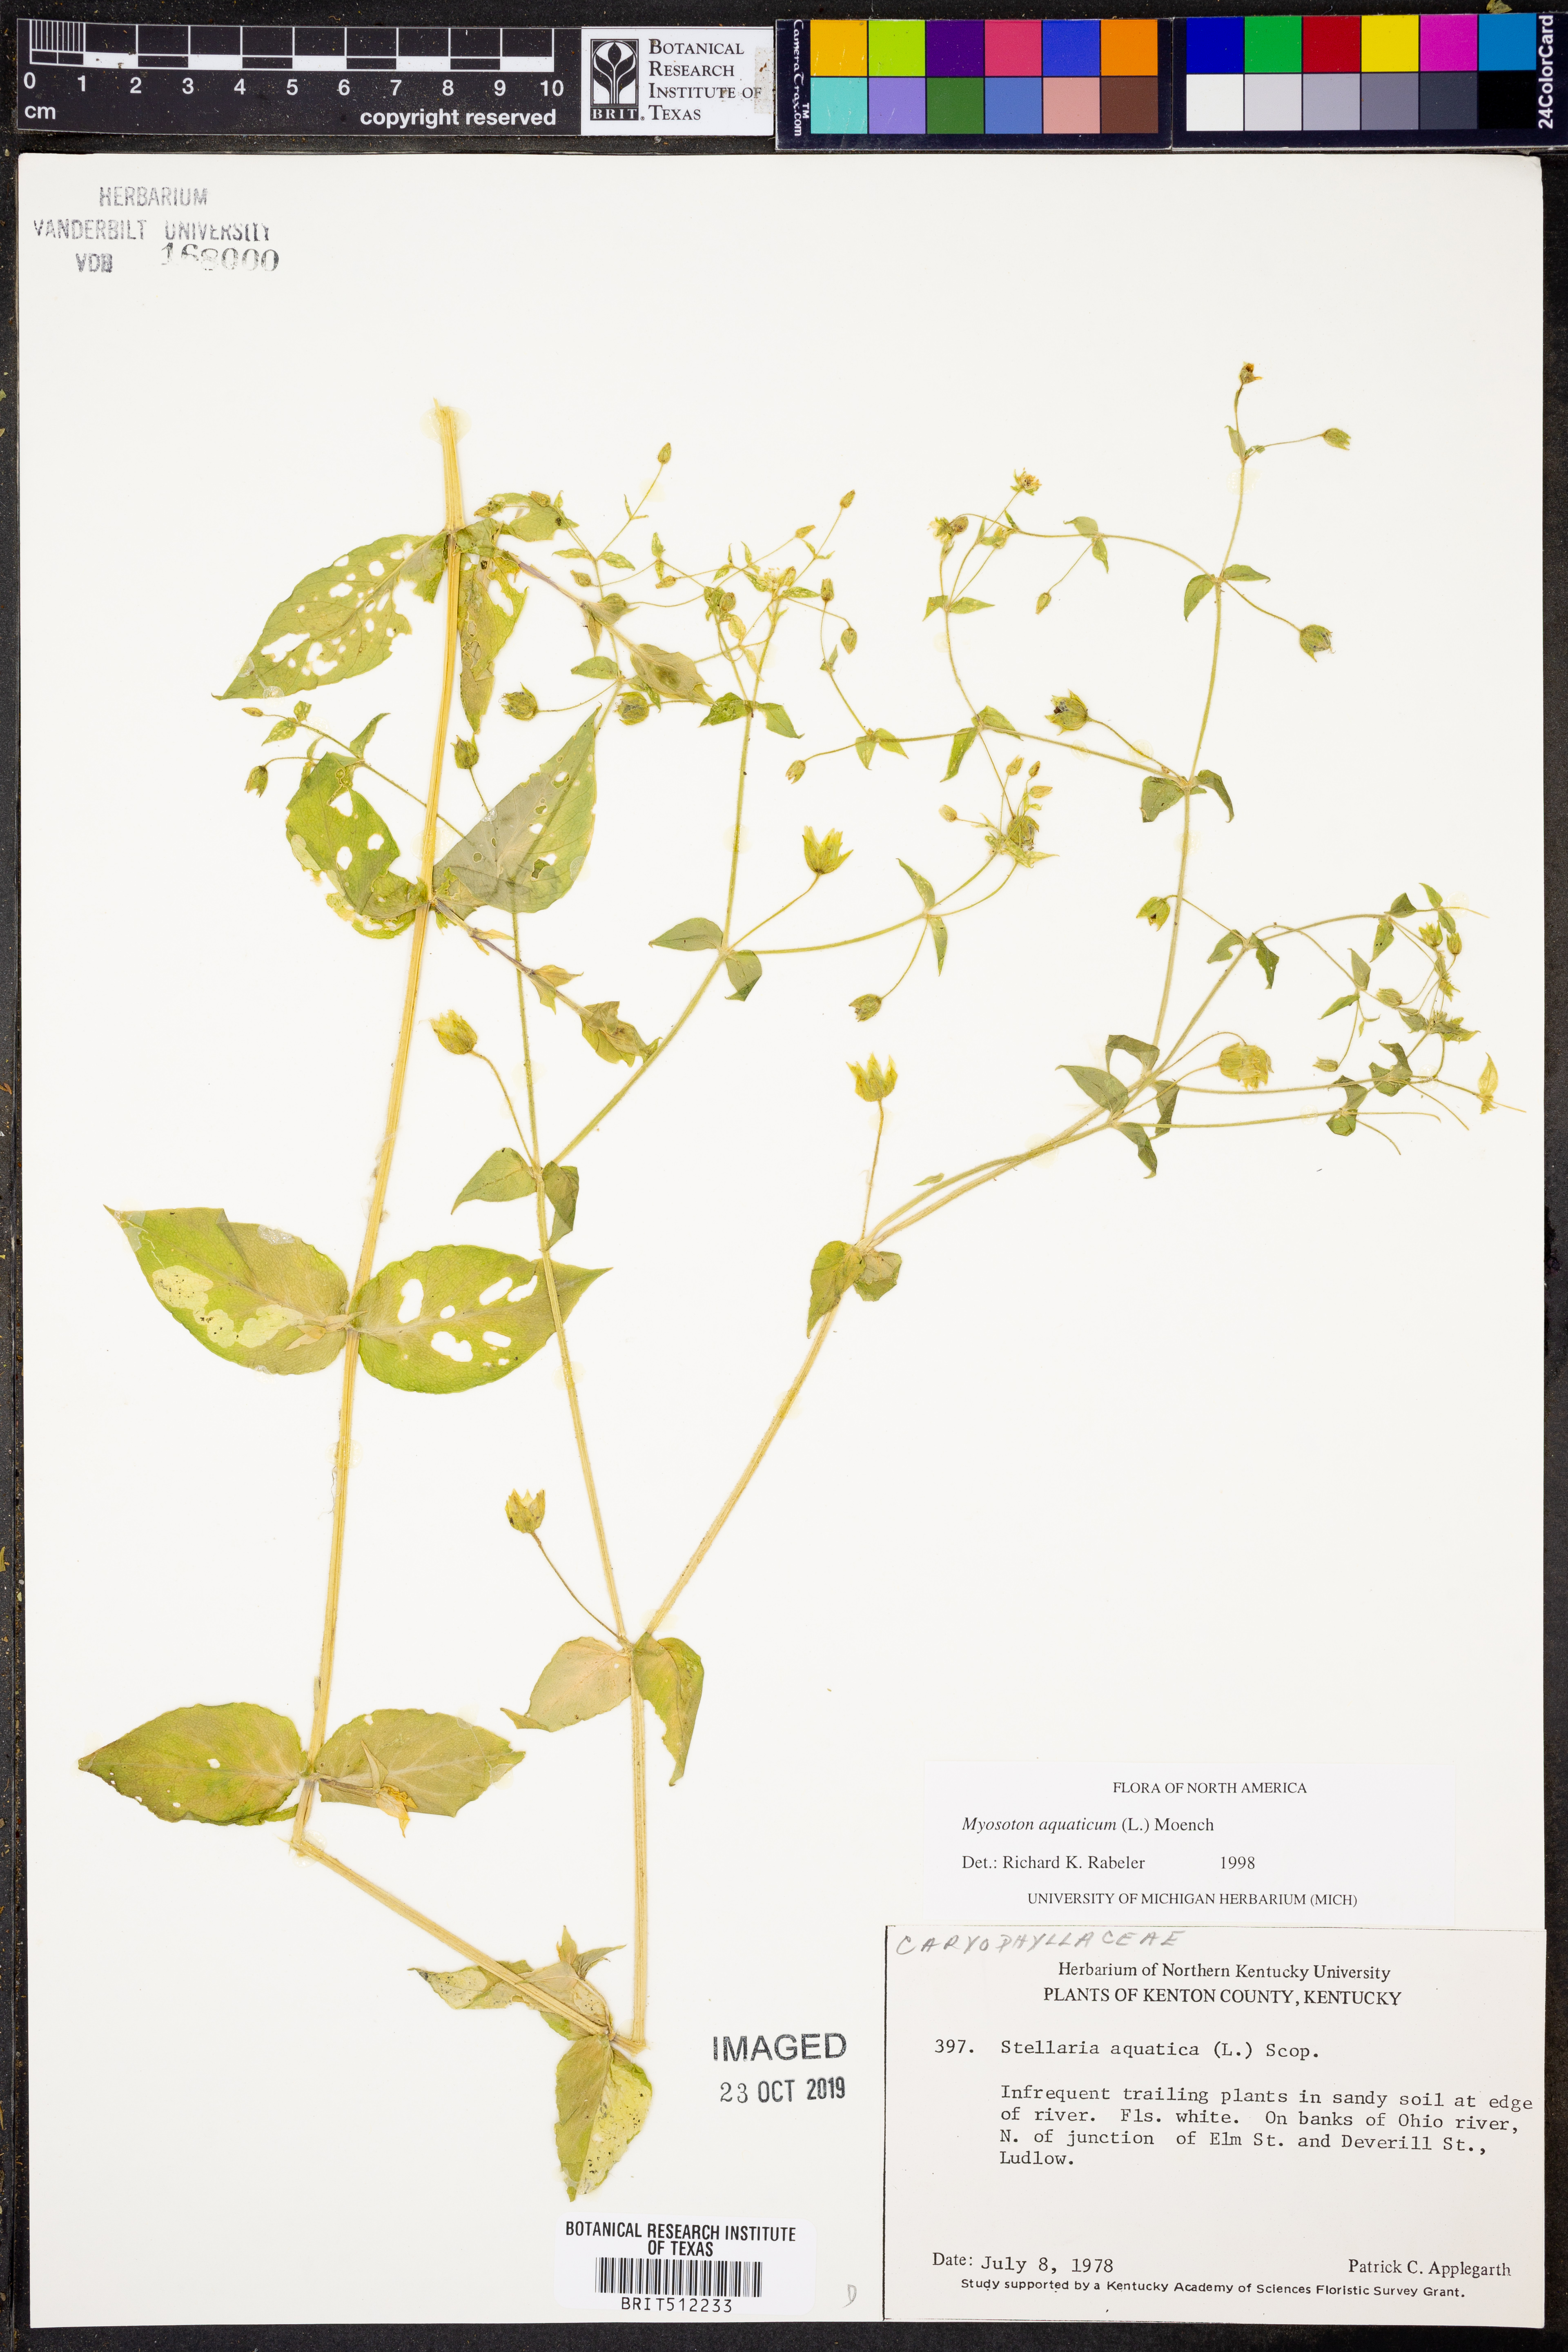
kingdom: Plantae
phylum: Tracheophyta
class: Magnoliopsida
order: Caryophyllales
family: Caryophyllaceae
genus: Stellaria
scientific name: Stellaria aquatica
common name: Water chickweed
